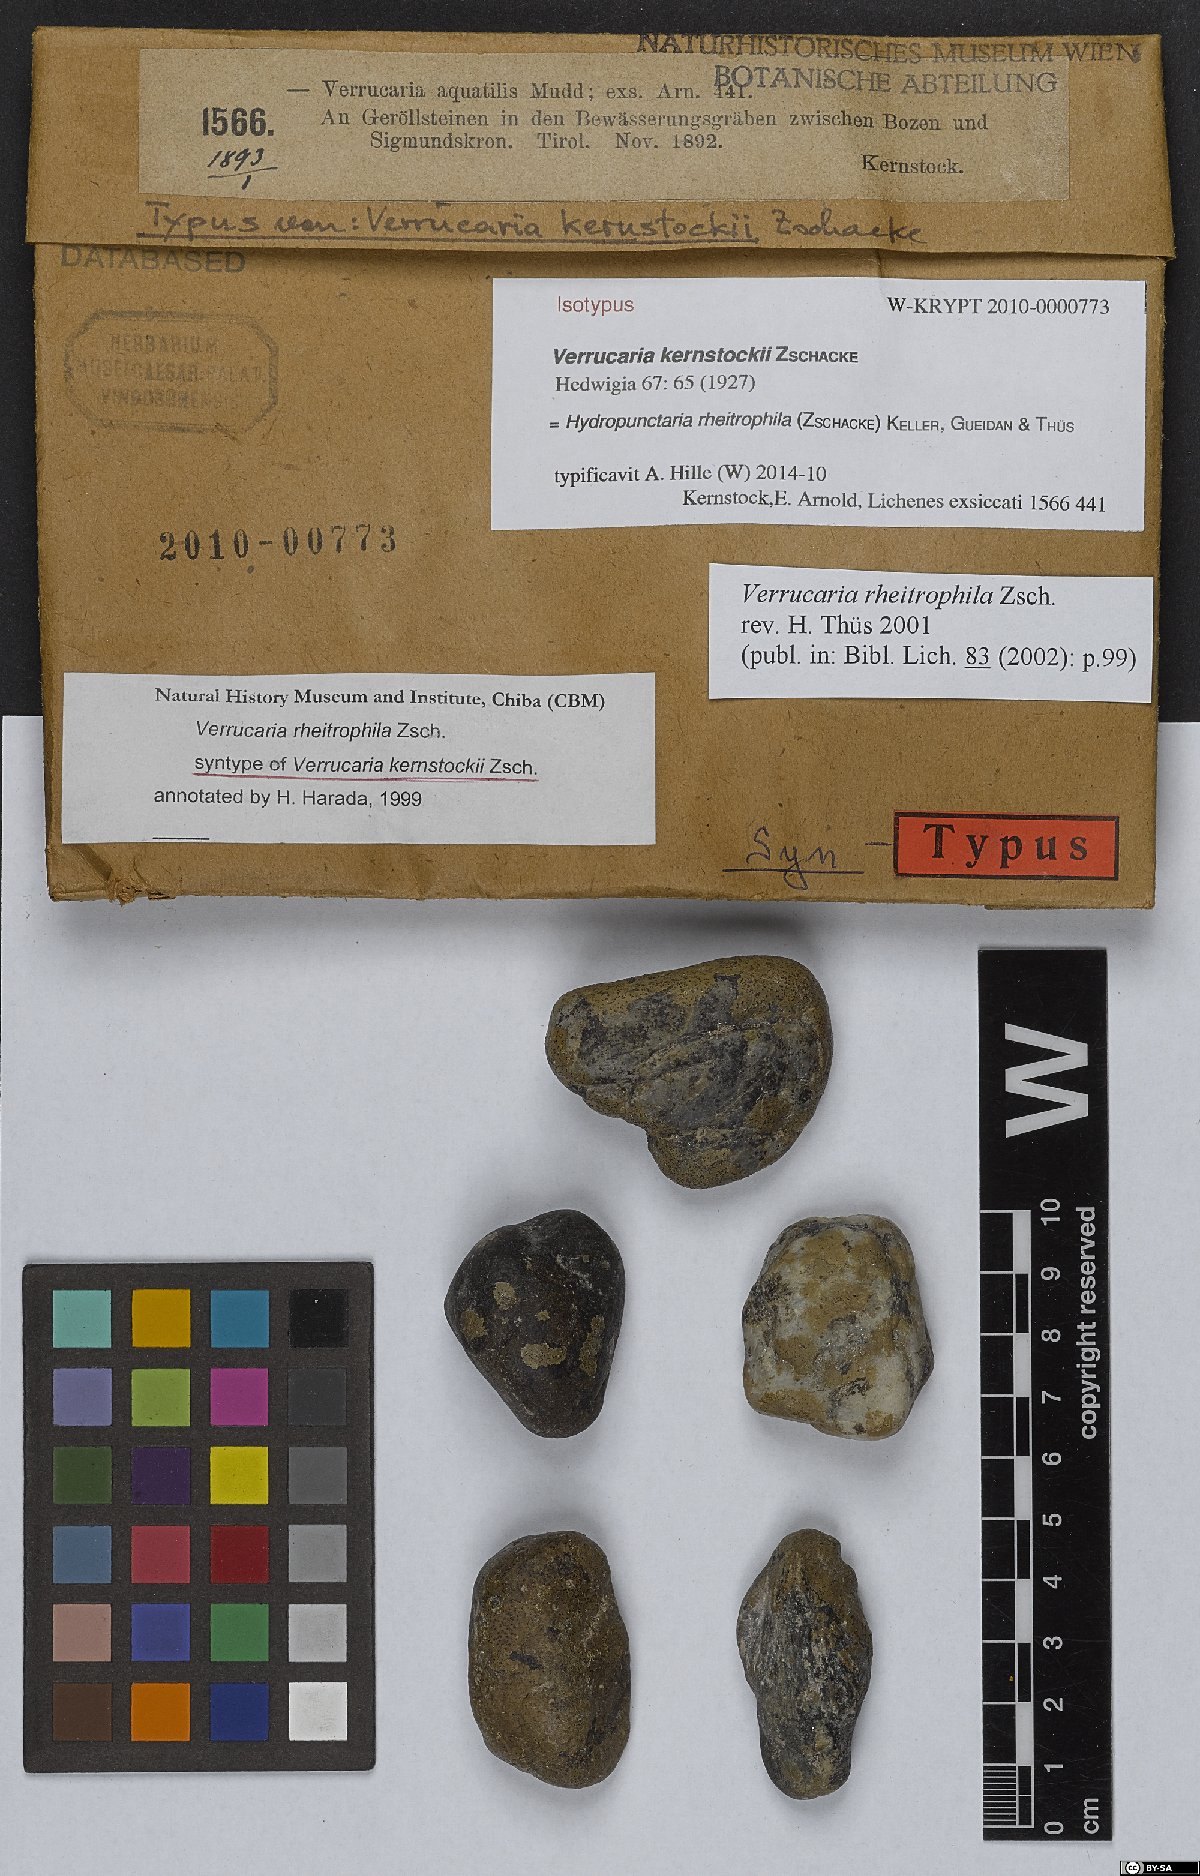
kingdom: Fungi
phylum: Ascomycota
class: Eurotiomycetes
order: Verrucariales
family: Verrucariaceae
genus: Hydropunctaria
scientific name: Hydropunctaria rheitrophila
